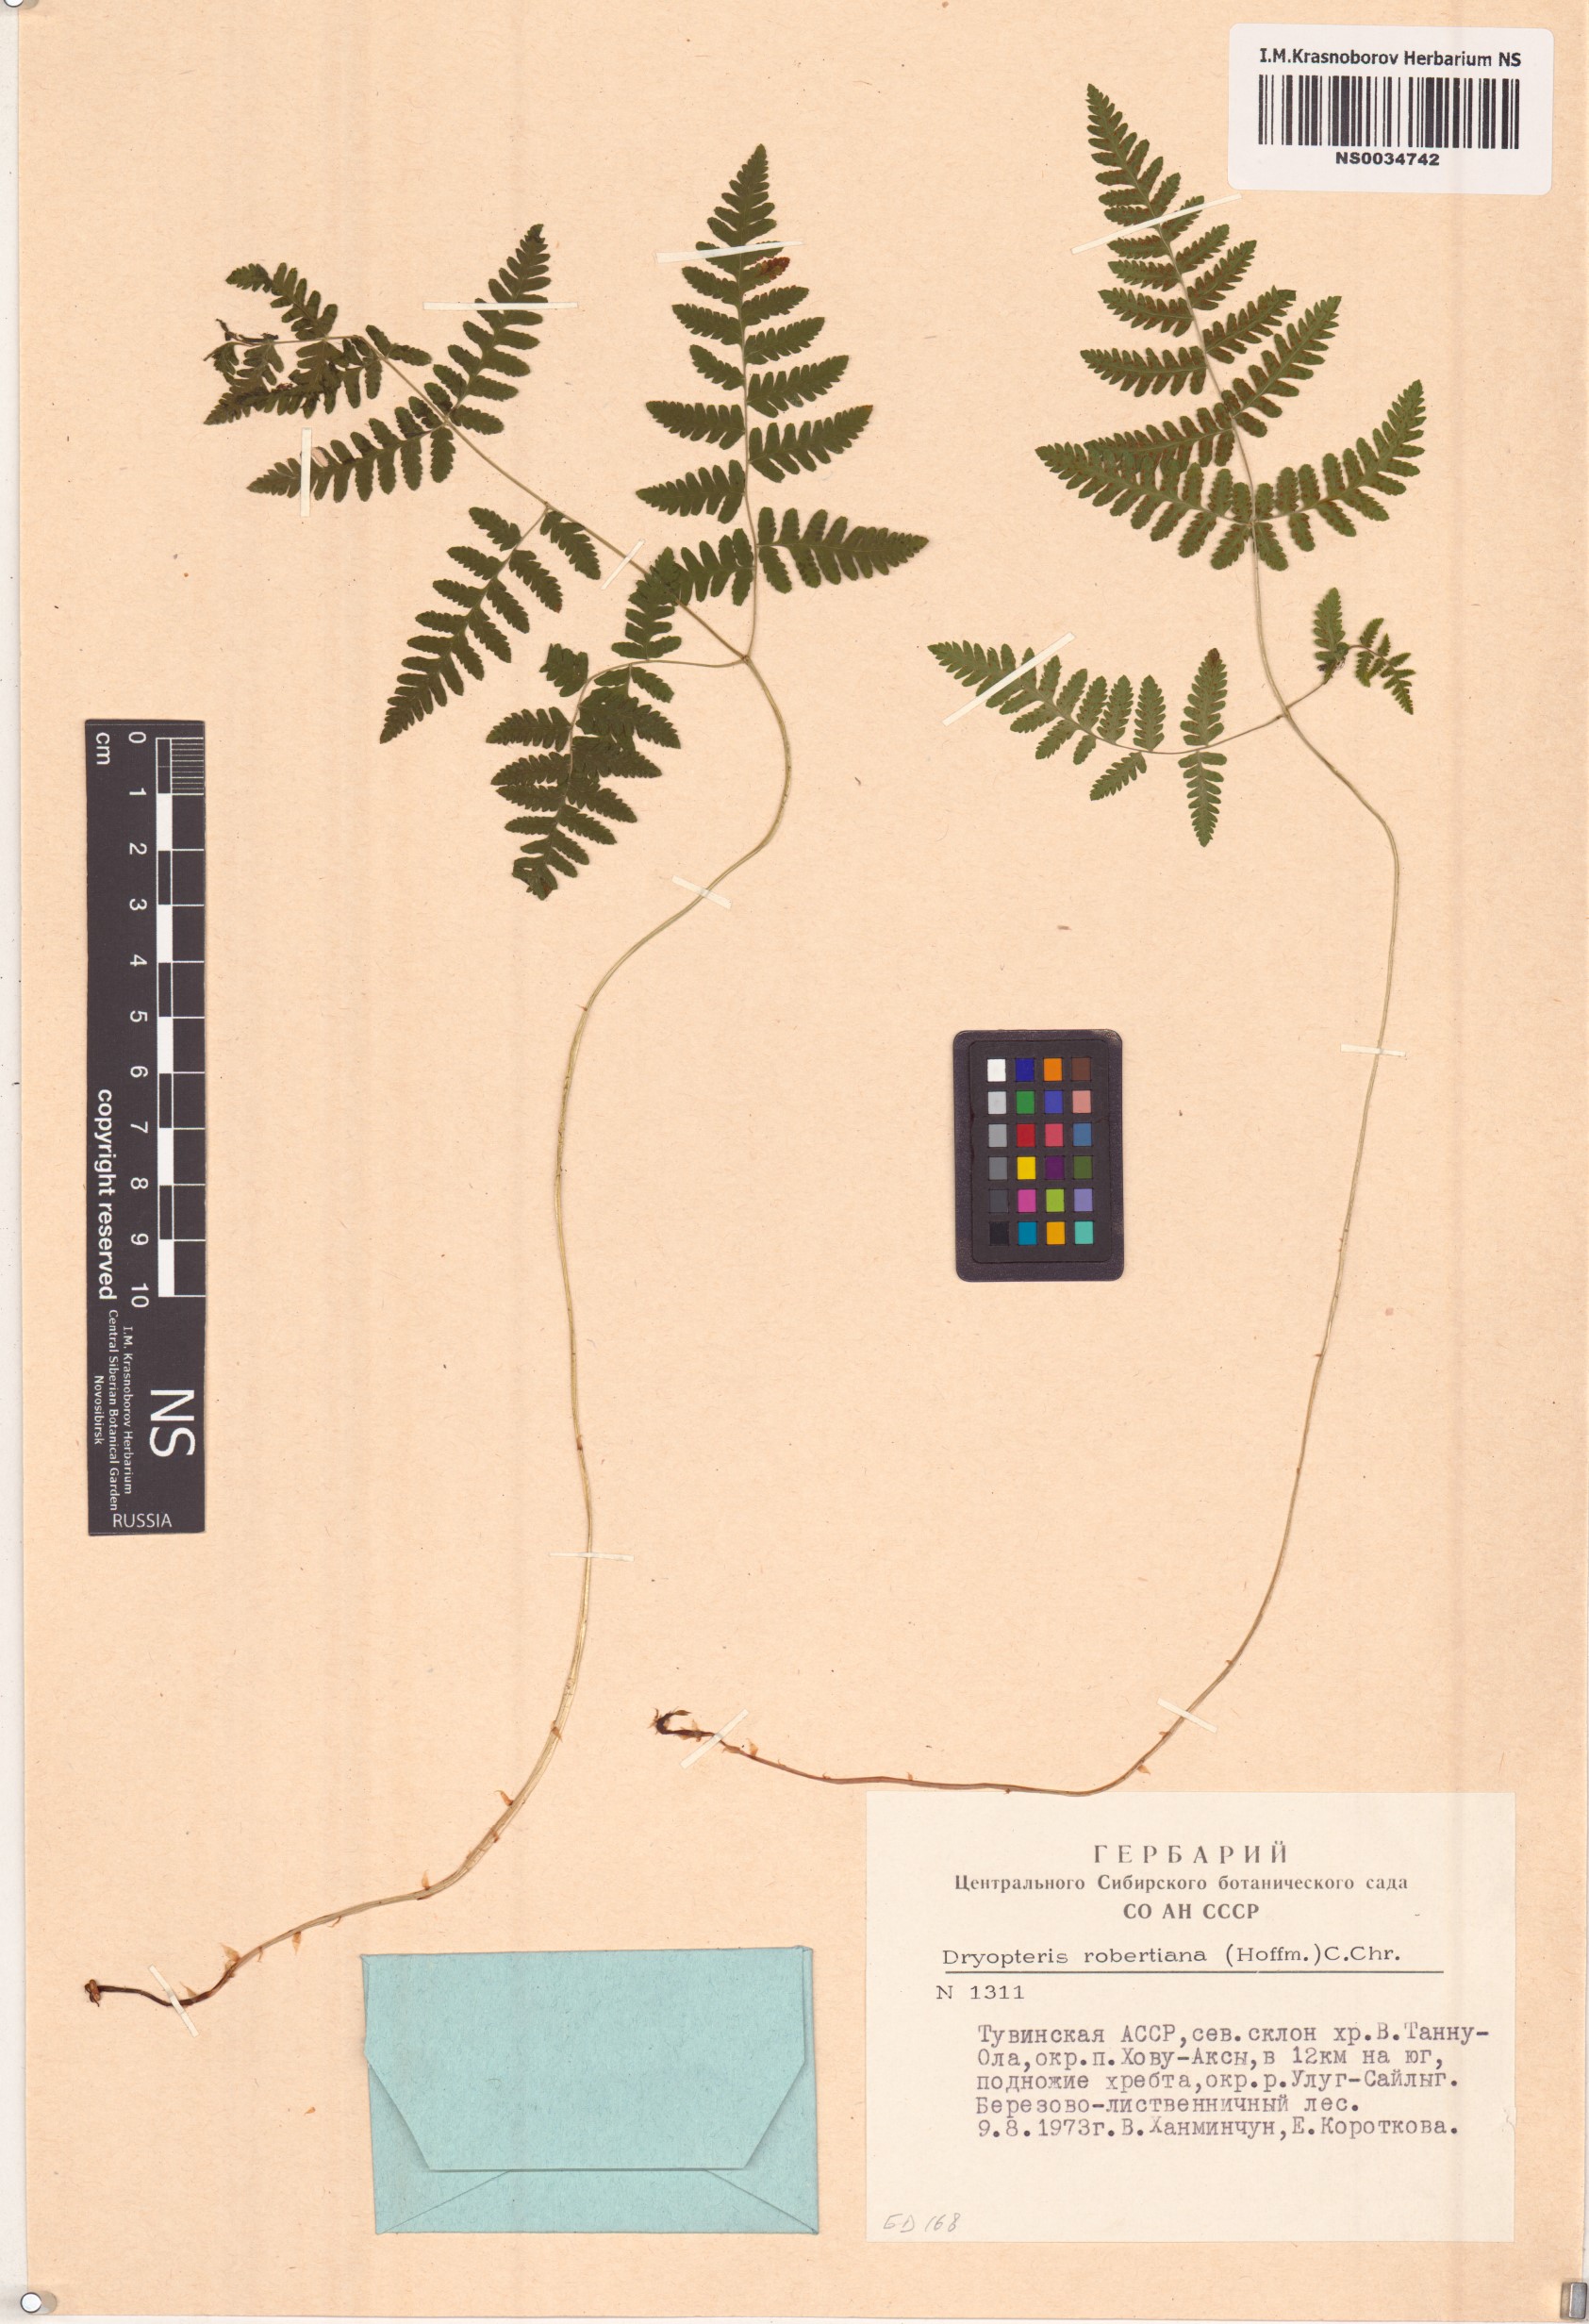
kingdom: Plantae
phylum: Tracheophyta
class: Polypodiopsida
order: Polypodiales
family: Cystopteridaceae
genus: Gymnocarpium
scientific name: Gymnocarpium robertianum
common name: Limestone fern
